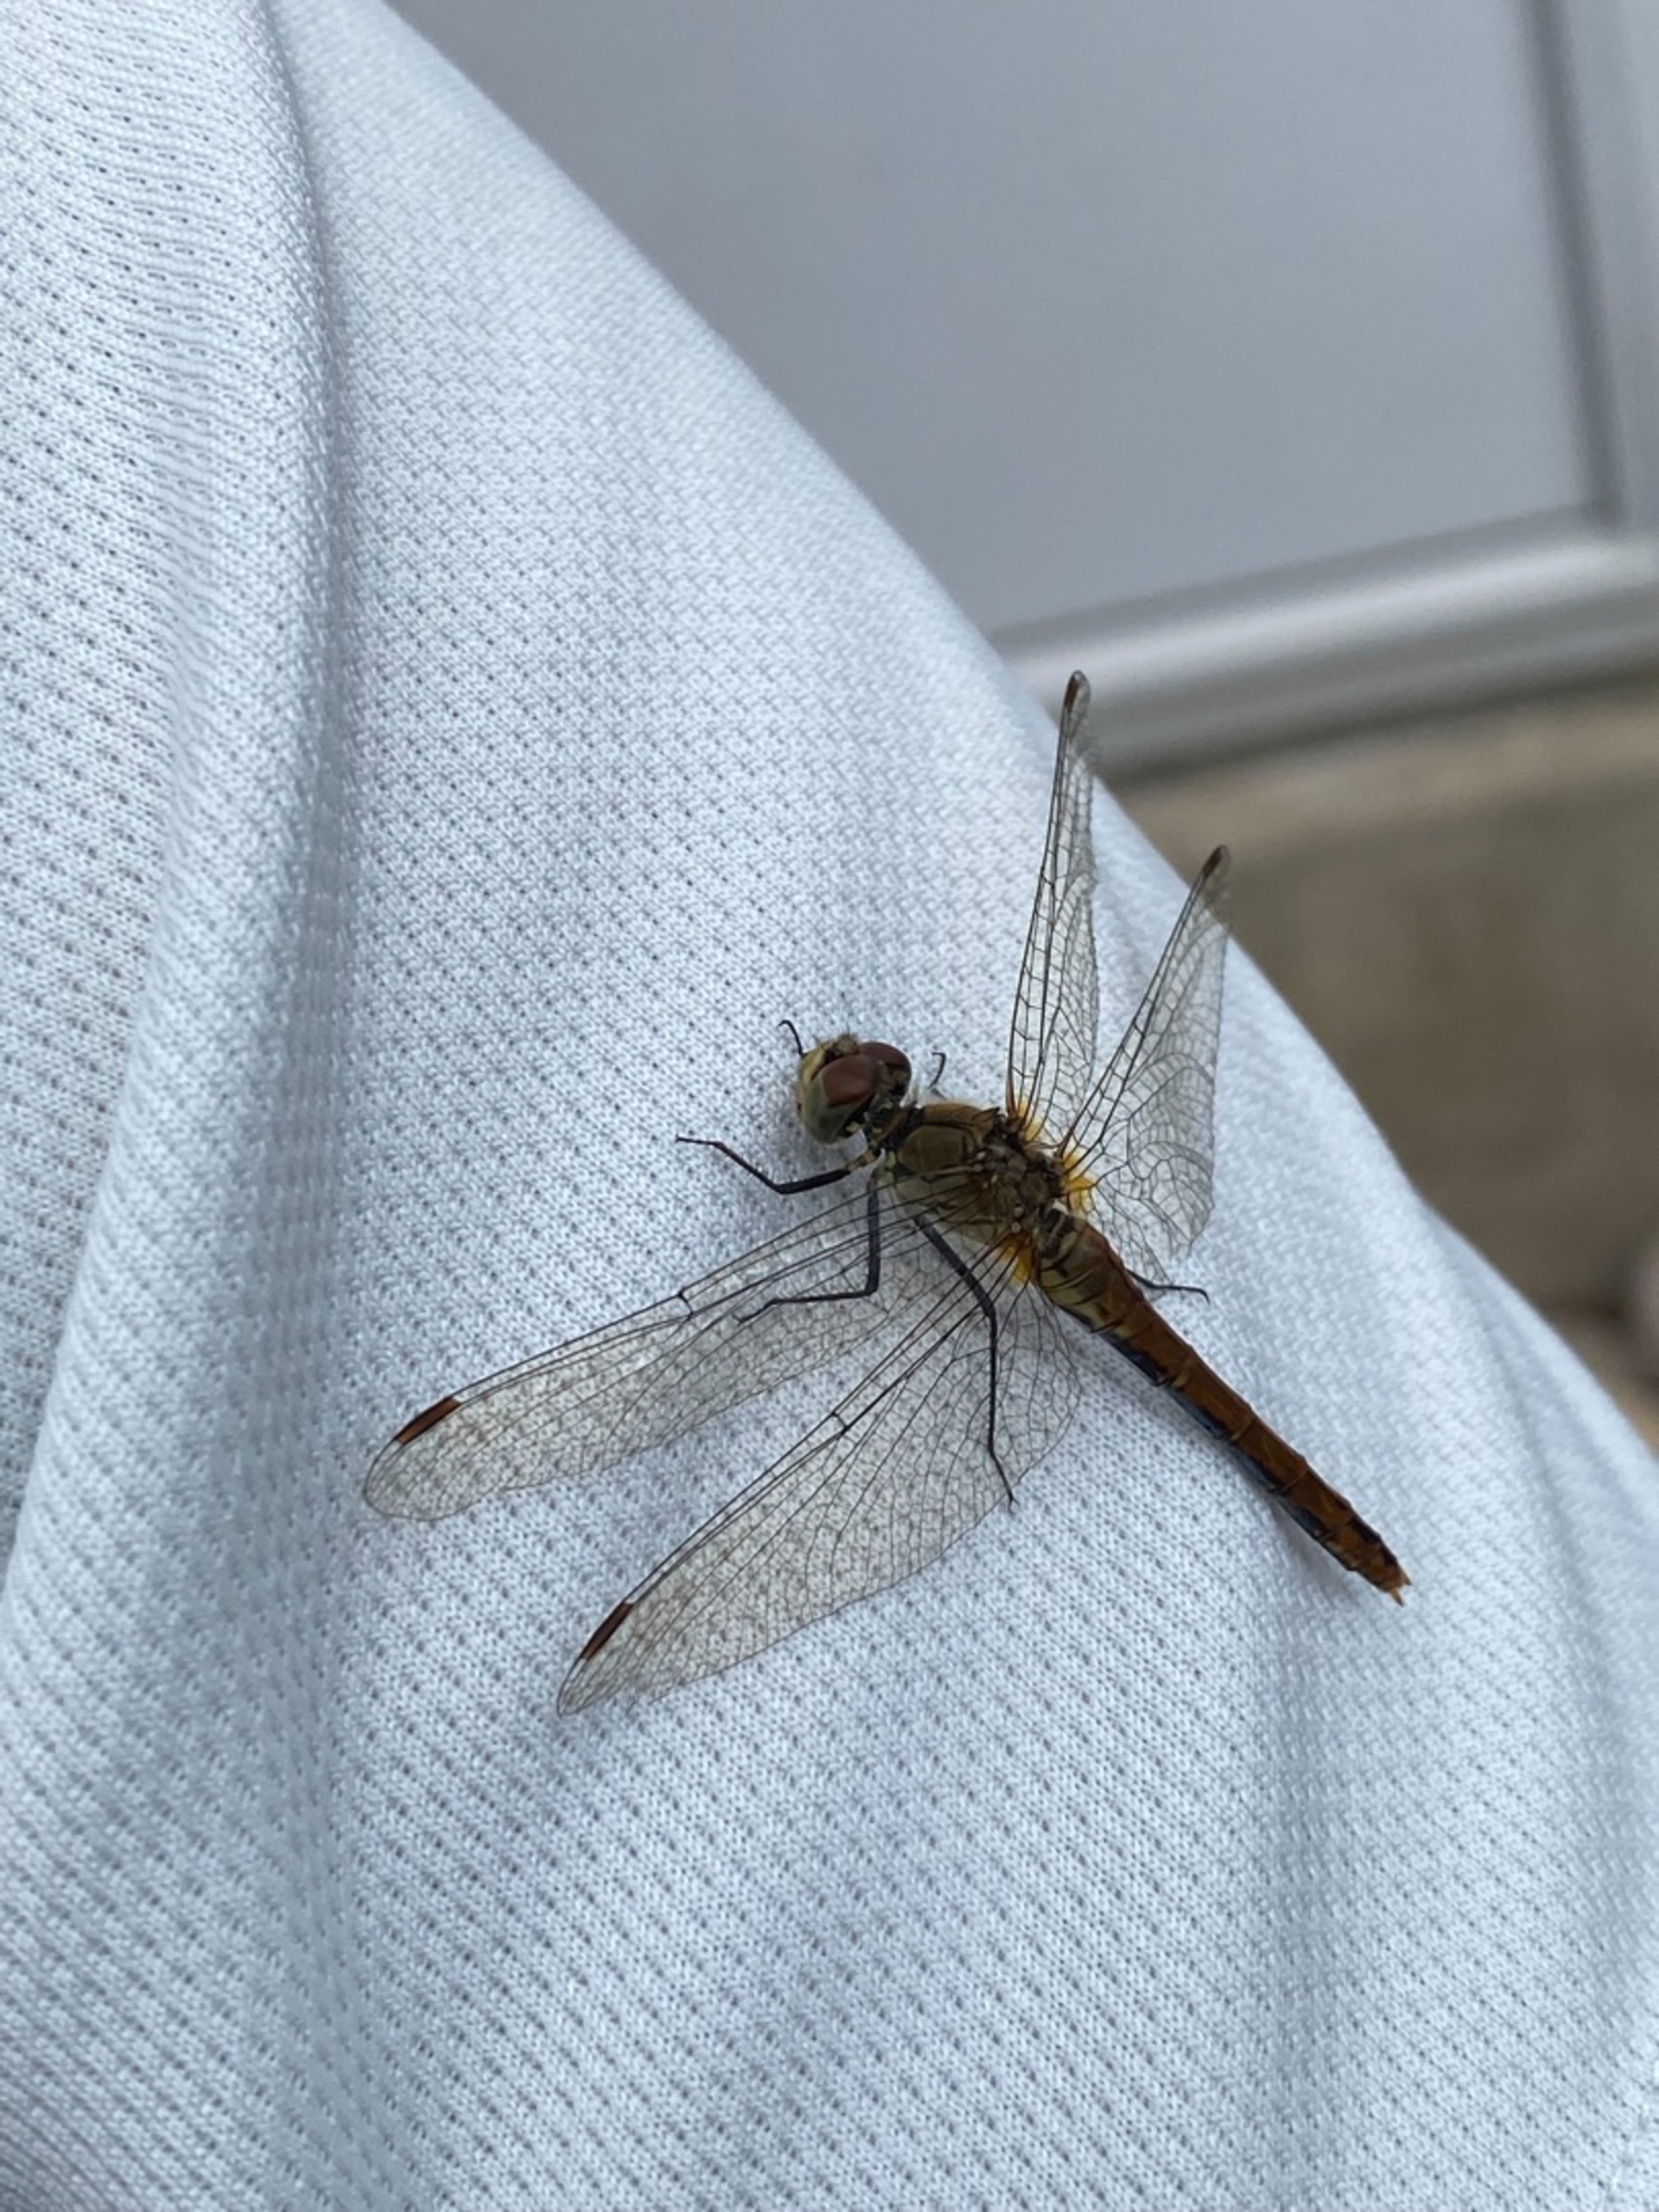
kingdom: Animalia
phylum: Arthropoda
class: Insecta
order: Odonata
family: Libellulidae
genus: Sympetrum
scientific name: Sympetrum
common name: Hedelibeller
